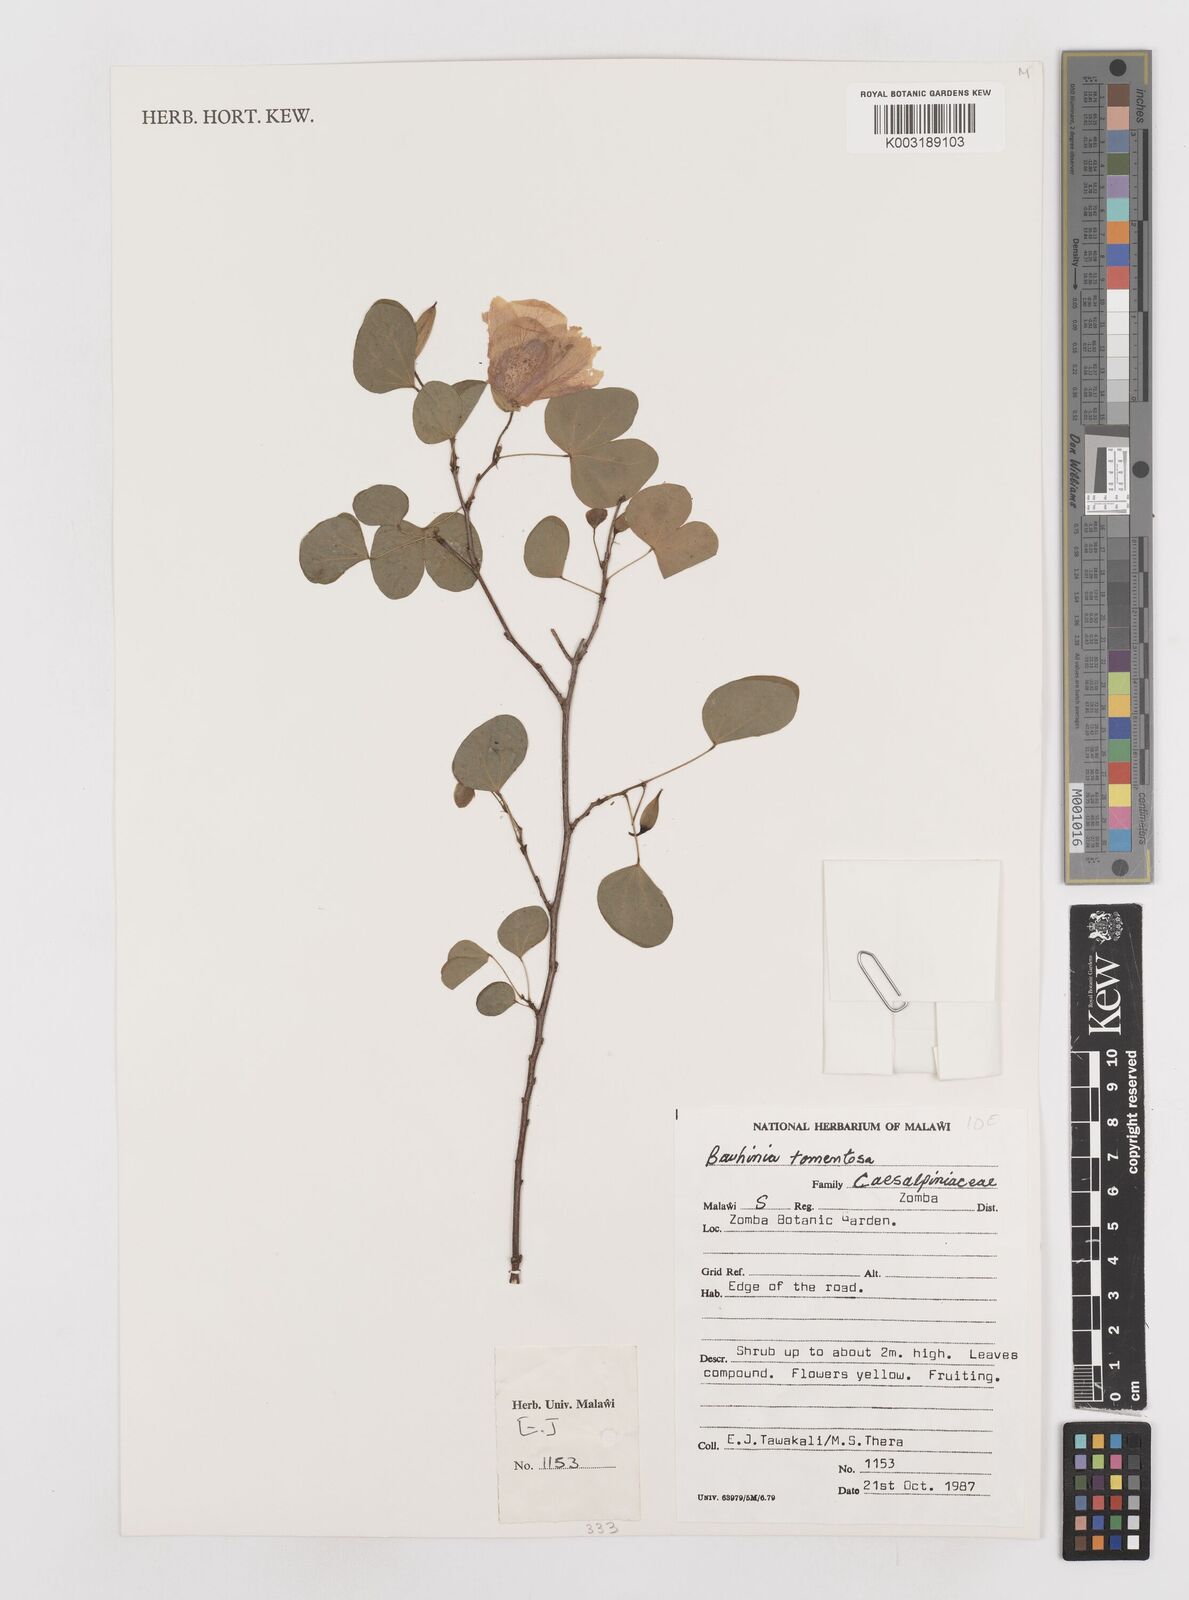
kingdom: Plantae
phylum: Tracheophyta
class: Magnoliopsida
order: Fabales
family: Fabaceae
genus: Bauhinia
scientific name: Bauhinia tomentosa
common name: Bell bauhinia
